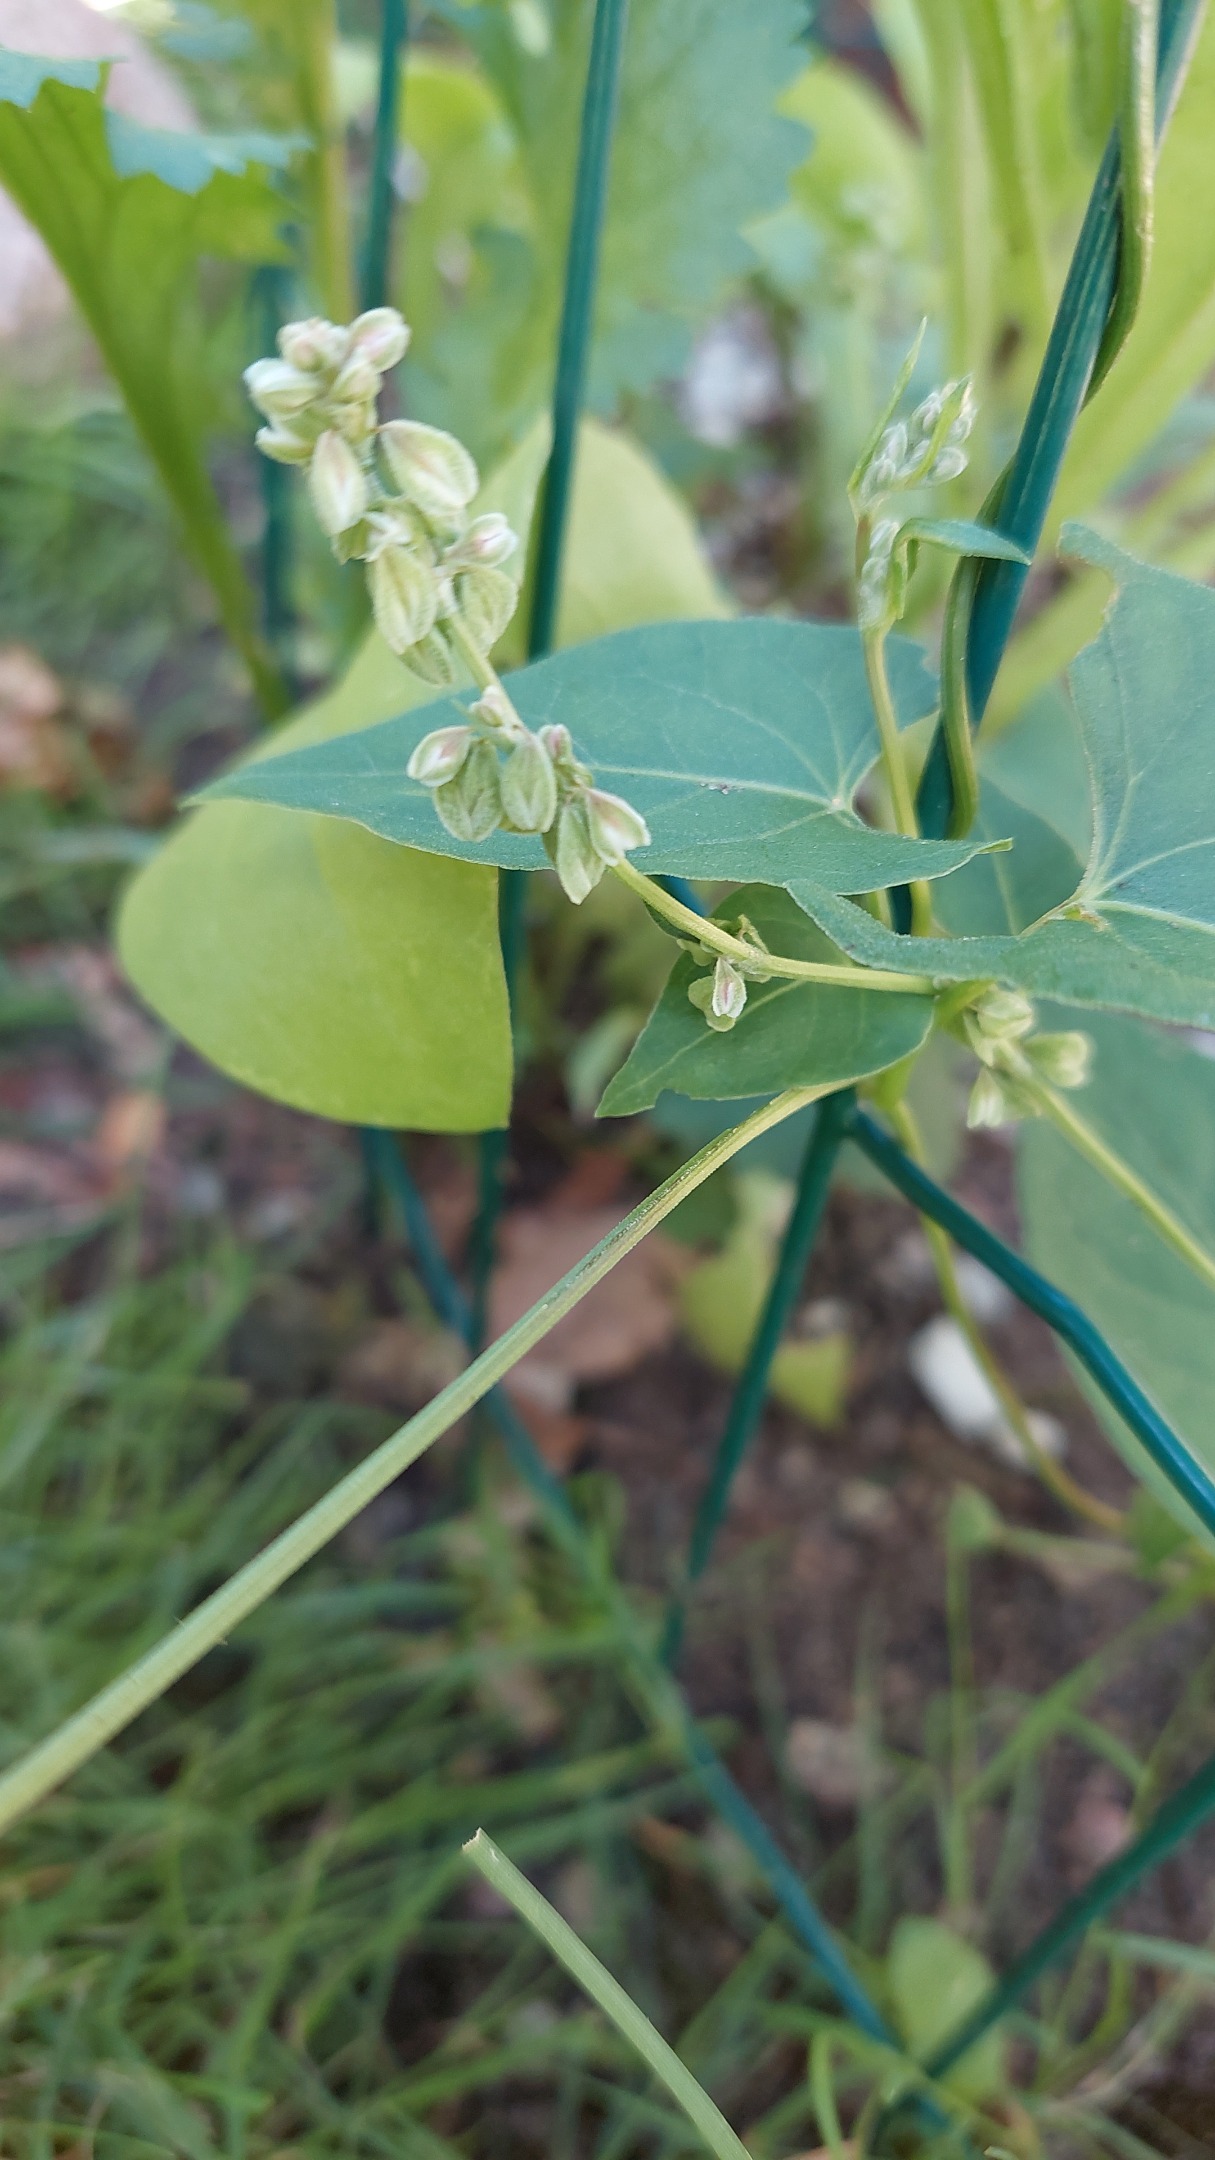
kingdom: Plantae
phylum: Tracheophyta
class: Magnoliopsida
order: Caryophyllales
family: Polygonaceae
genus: Fallopia
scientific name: Fallopia convolvulus
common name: Snerle-pileurt
